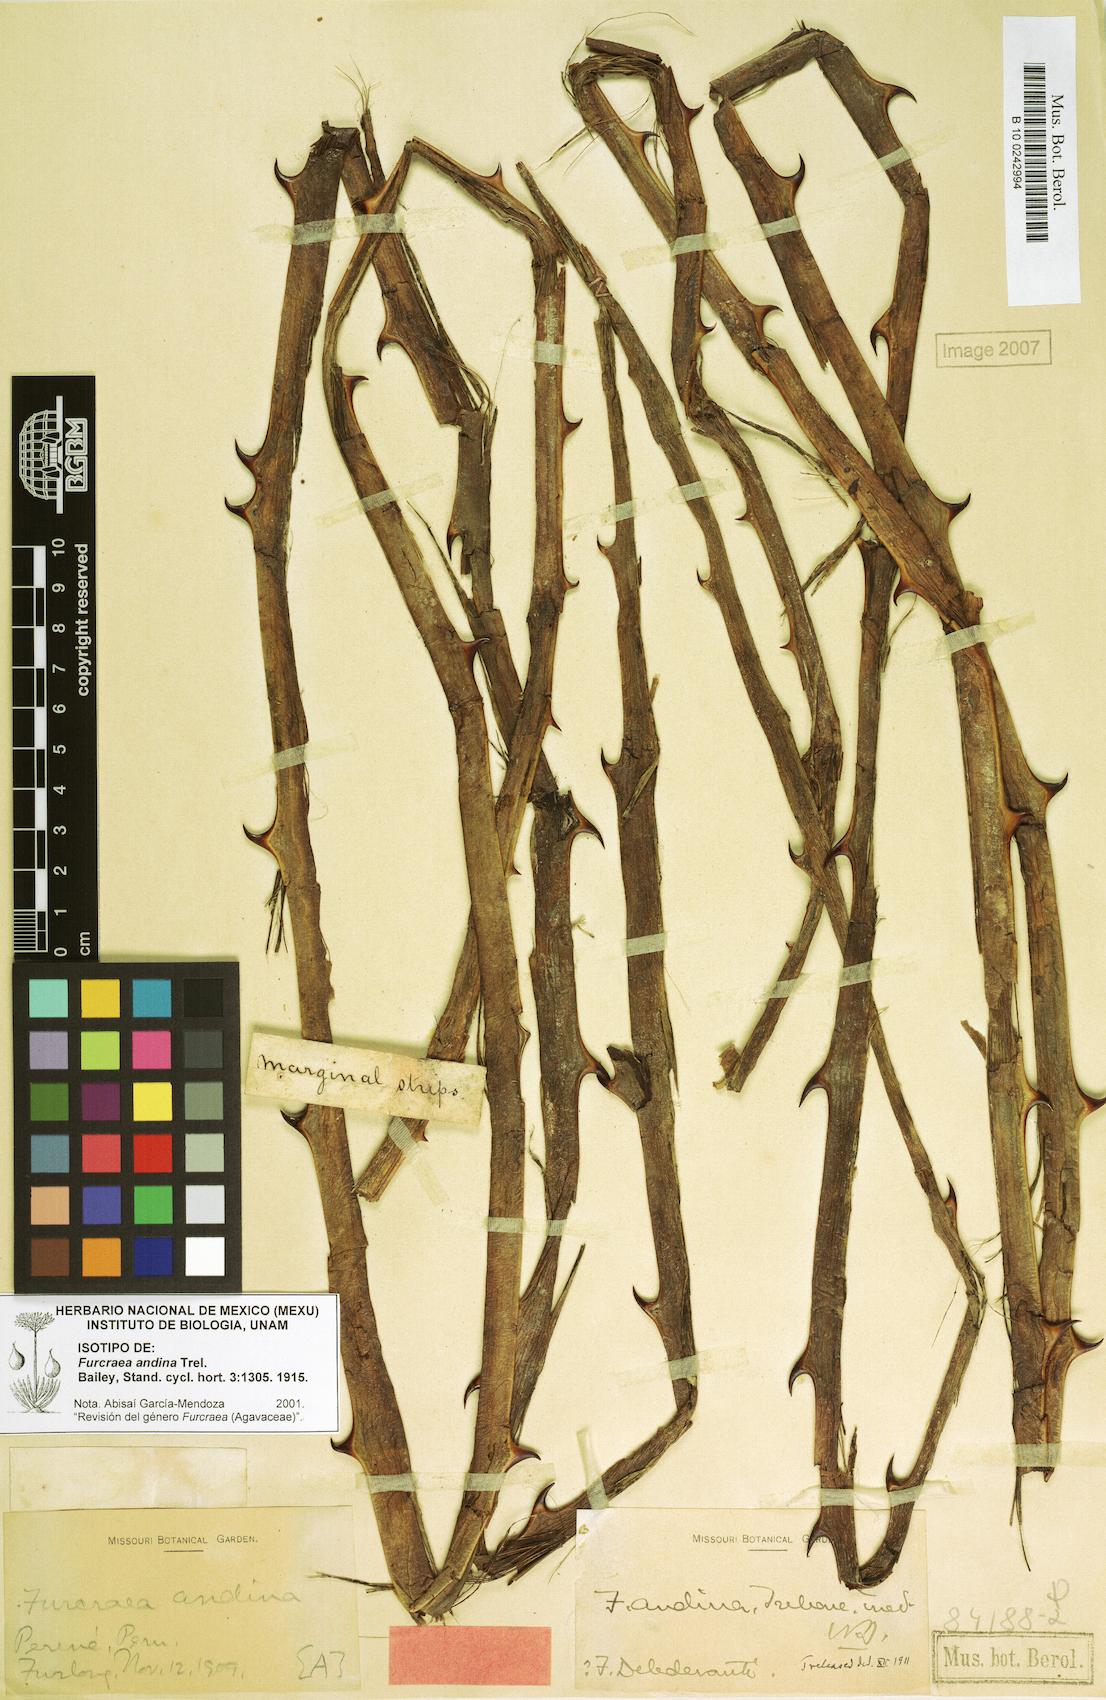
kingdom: Plantae
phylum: Tracheophyta
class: Liliopsida
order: Asparagales
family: Asparagaceae
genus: Furcraea
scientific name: Furcraea andina
